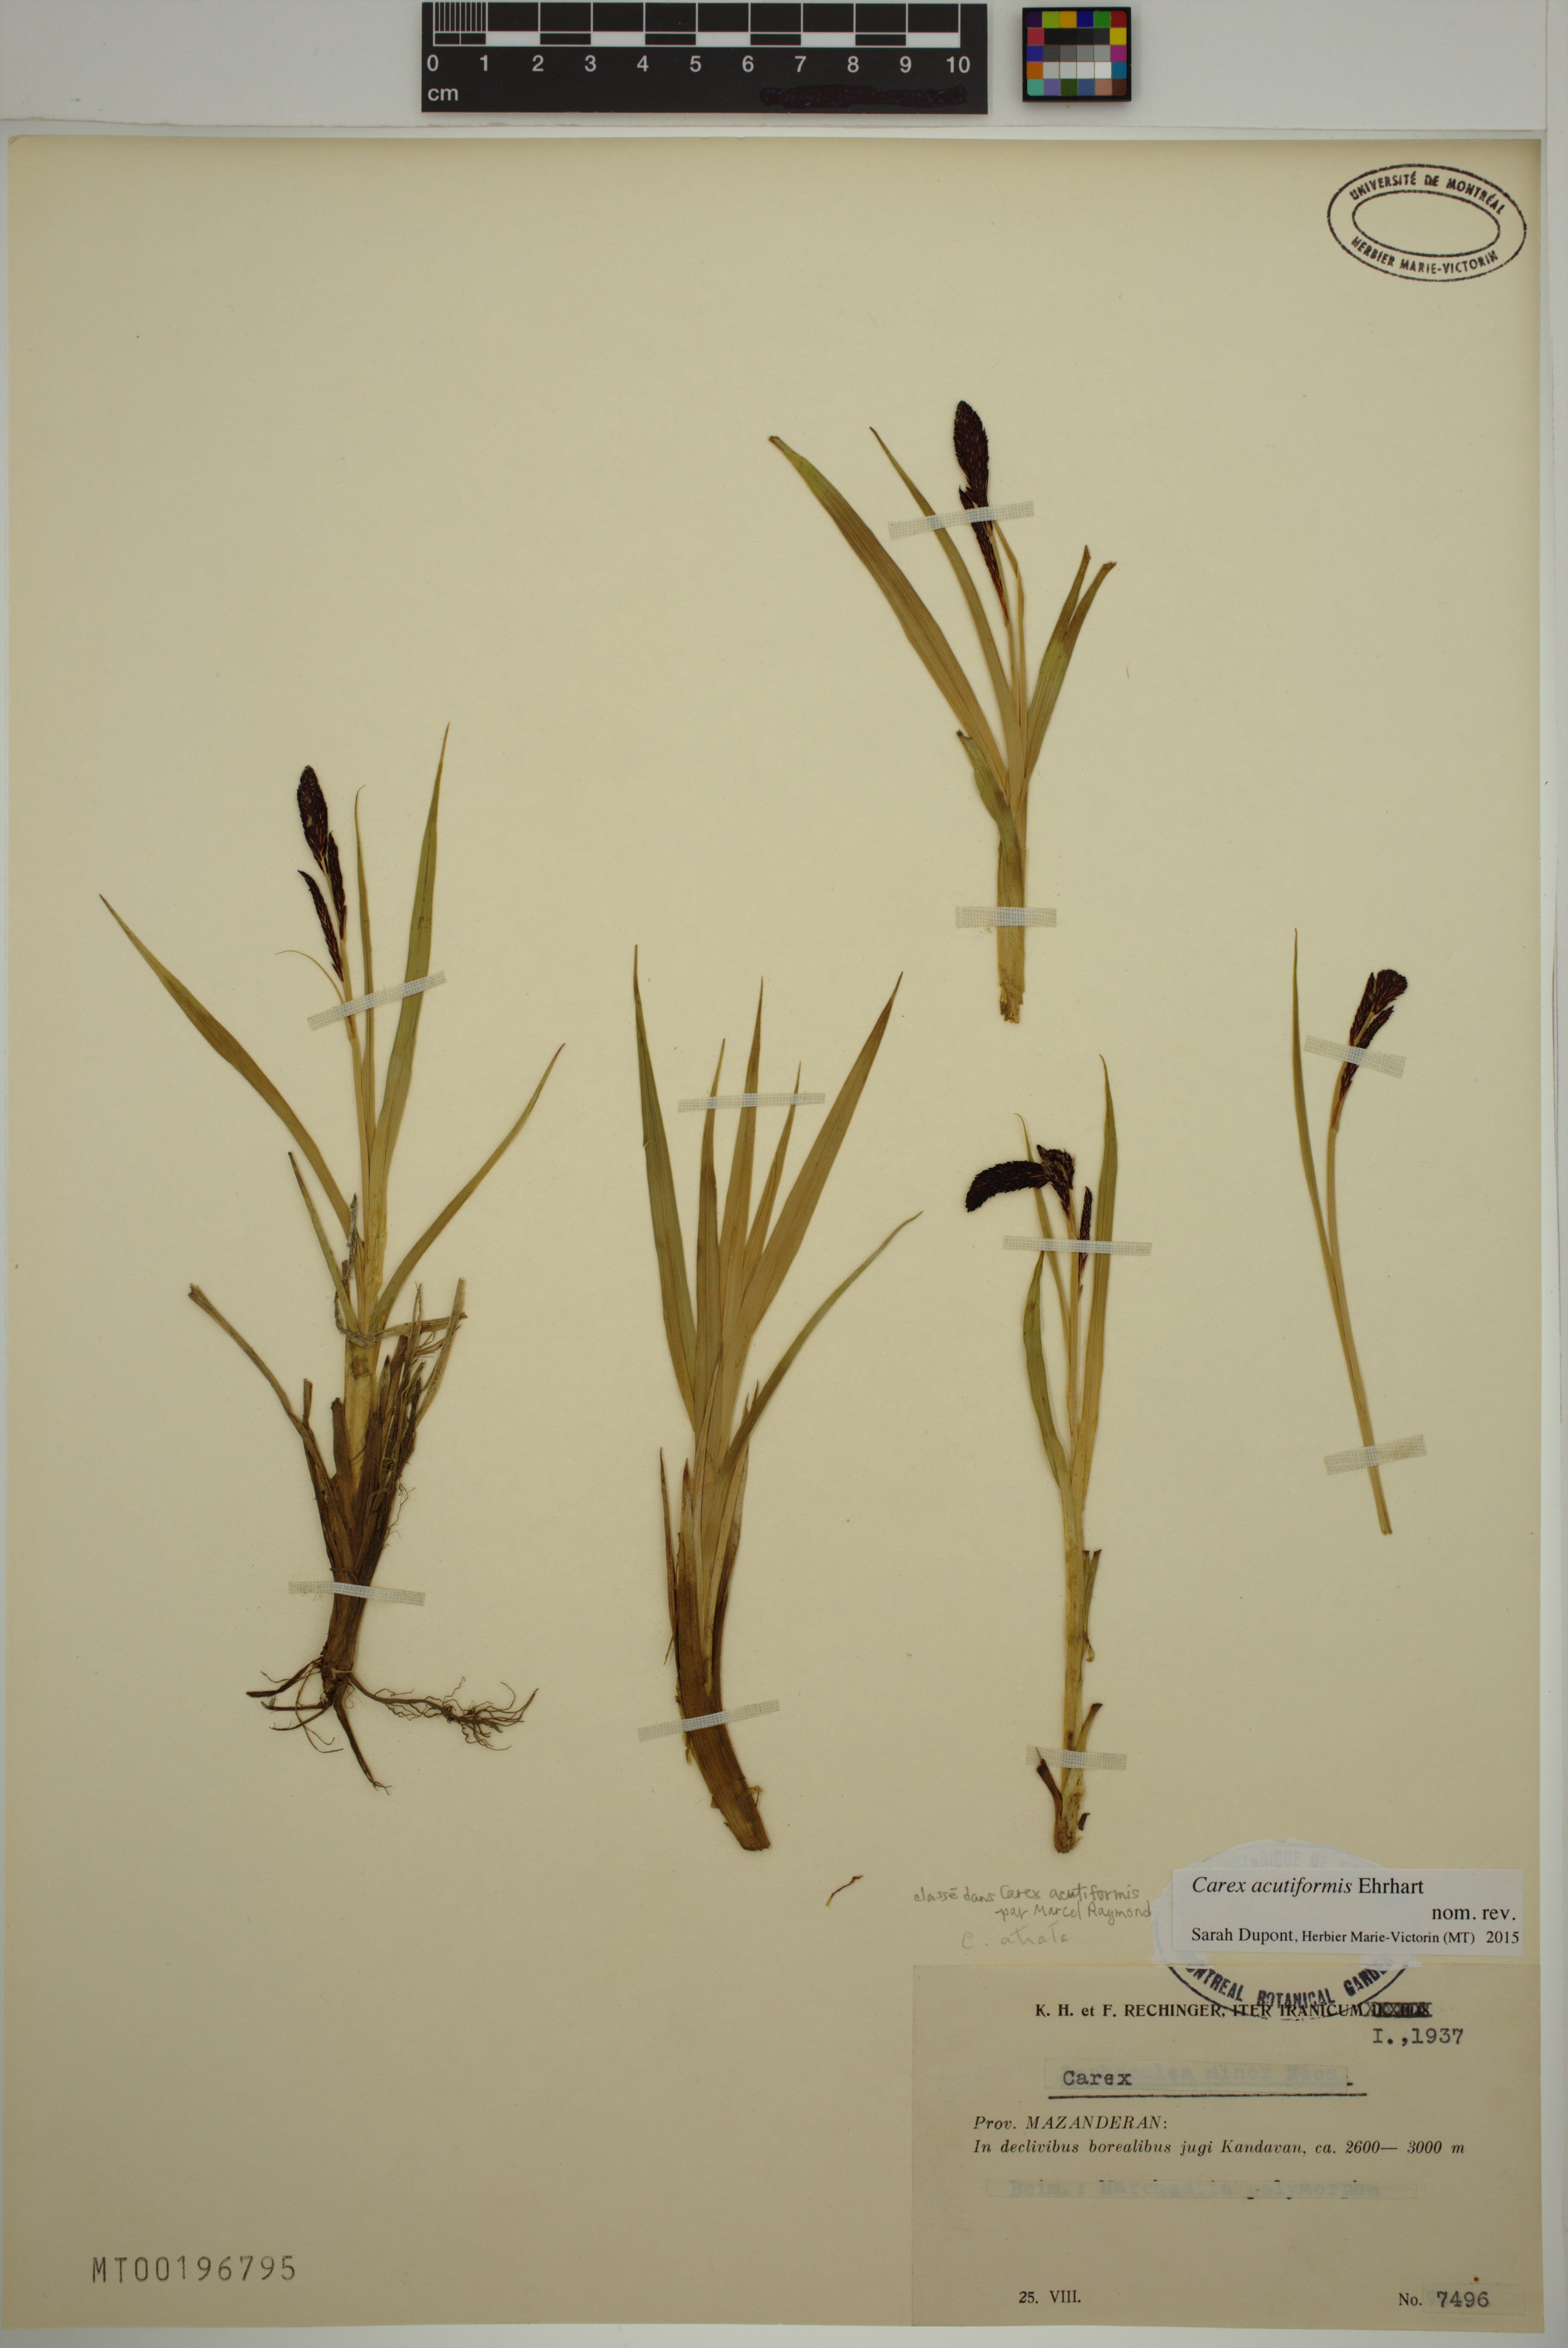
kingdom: Plantae
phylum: Tracheophyta
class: Liliopsida
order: Poales
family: Cyperaceae
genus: Carex
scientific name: Carex acutiformis
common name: Lesser pond-sedge
